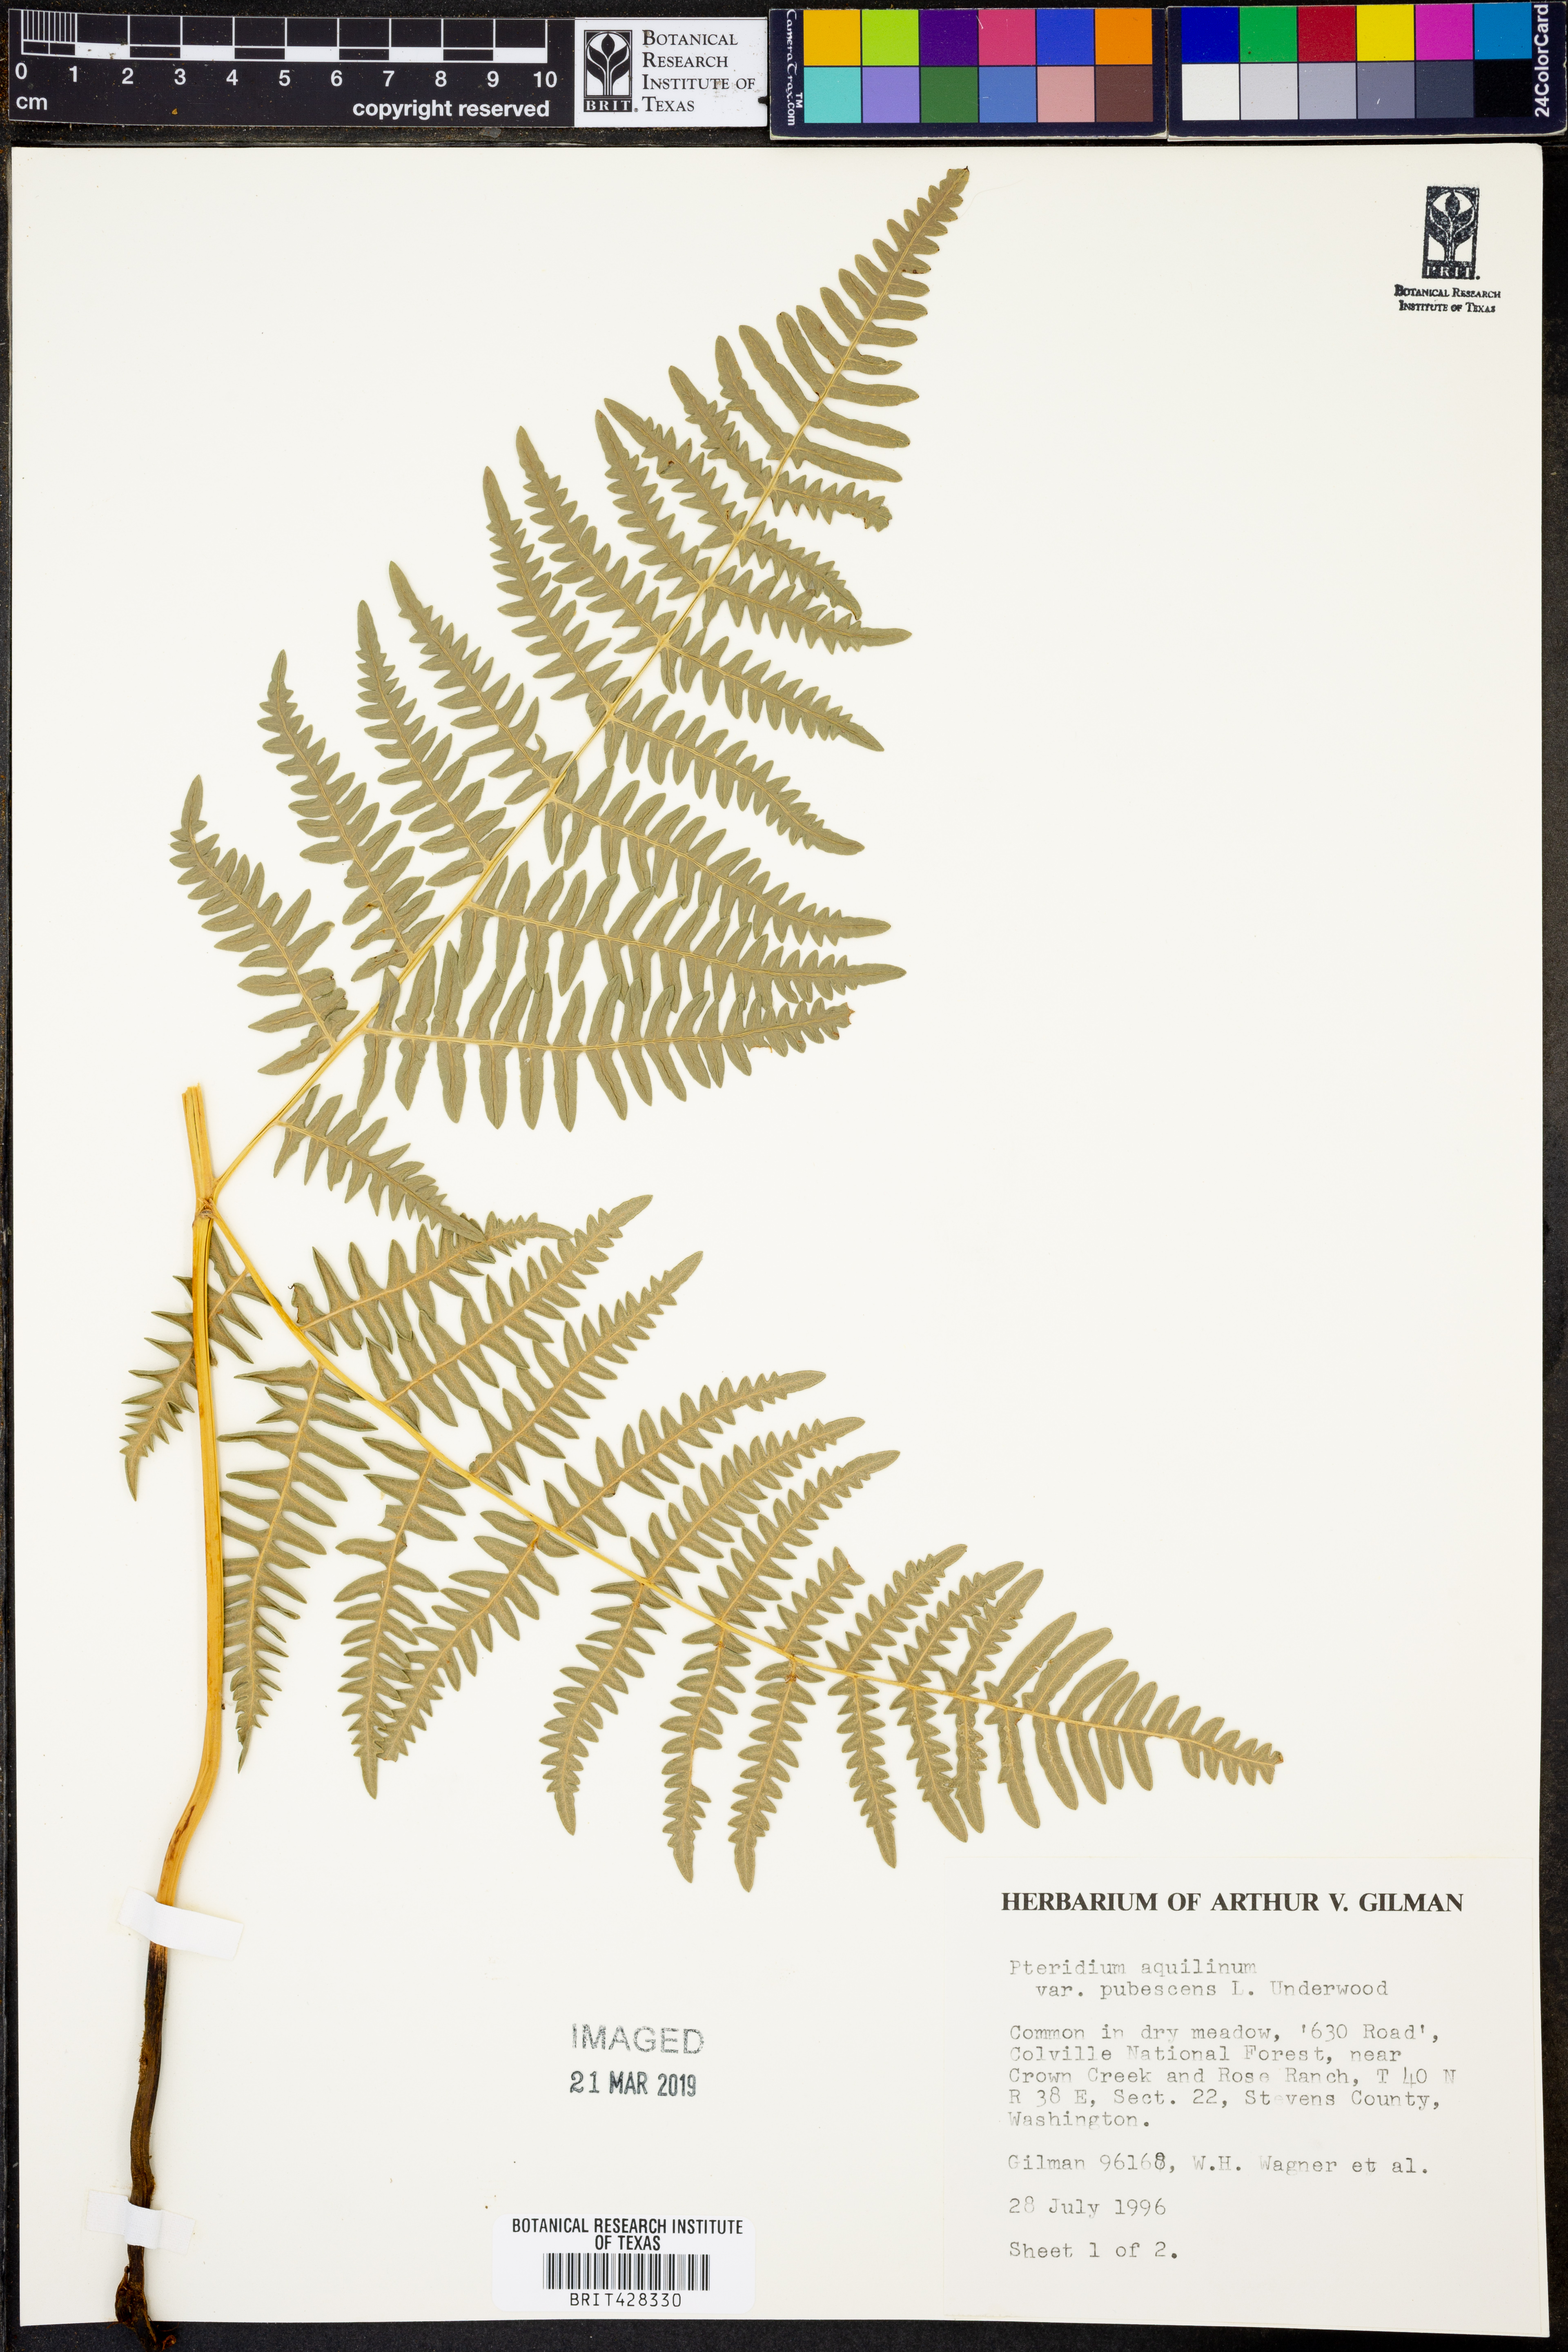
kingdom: Plantae
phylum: Tracheophyta
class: Polypodiopsida
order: Polypodiales
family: Dennstaedtiaceae
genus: Pteridium
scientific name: Pteridium aquilinum
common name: Bracken
